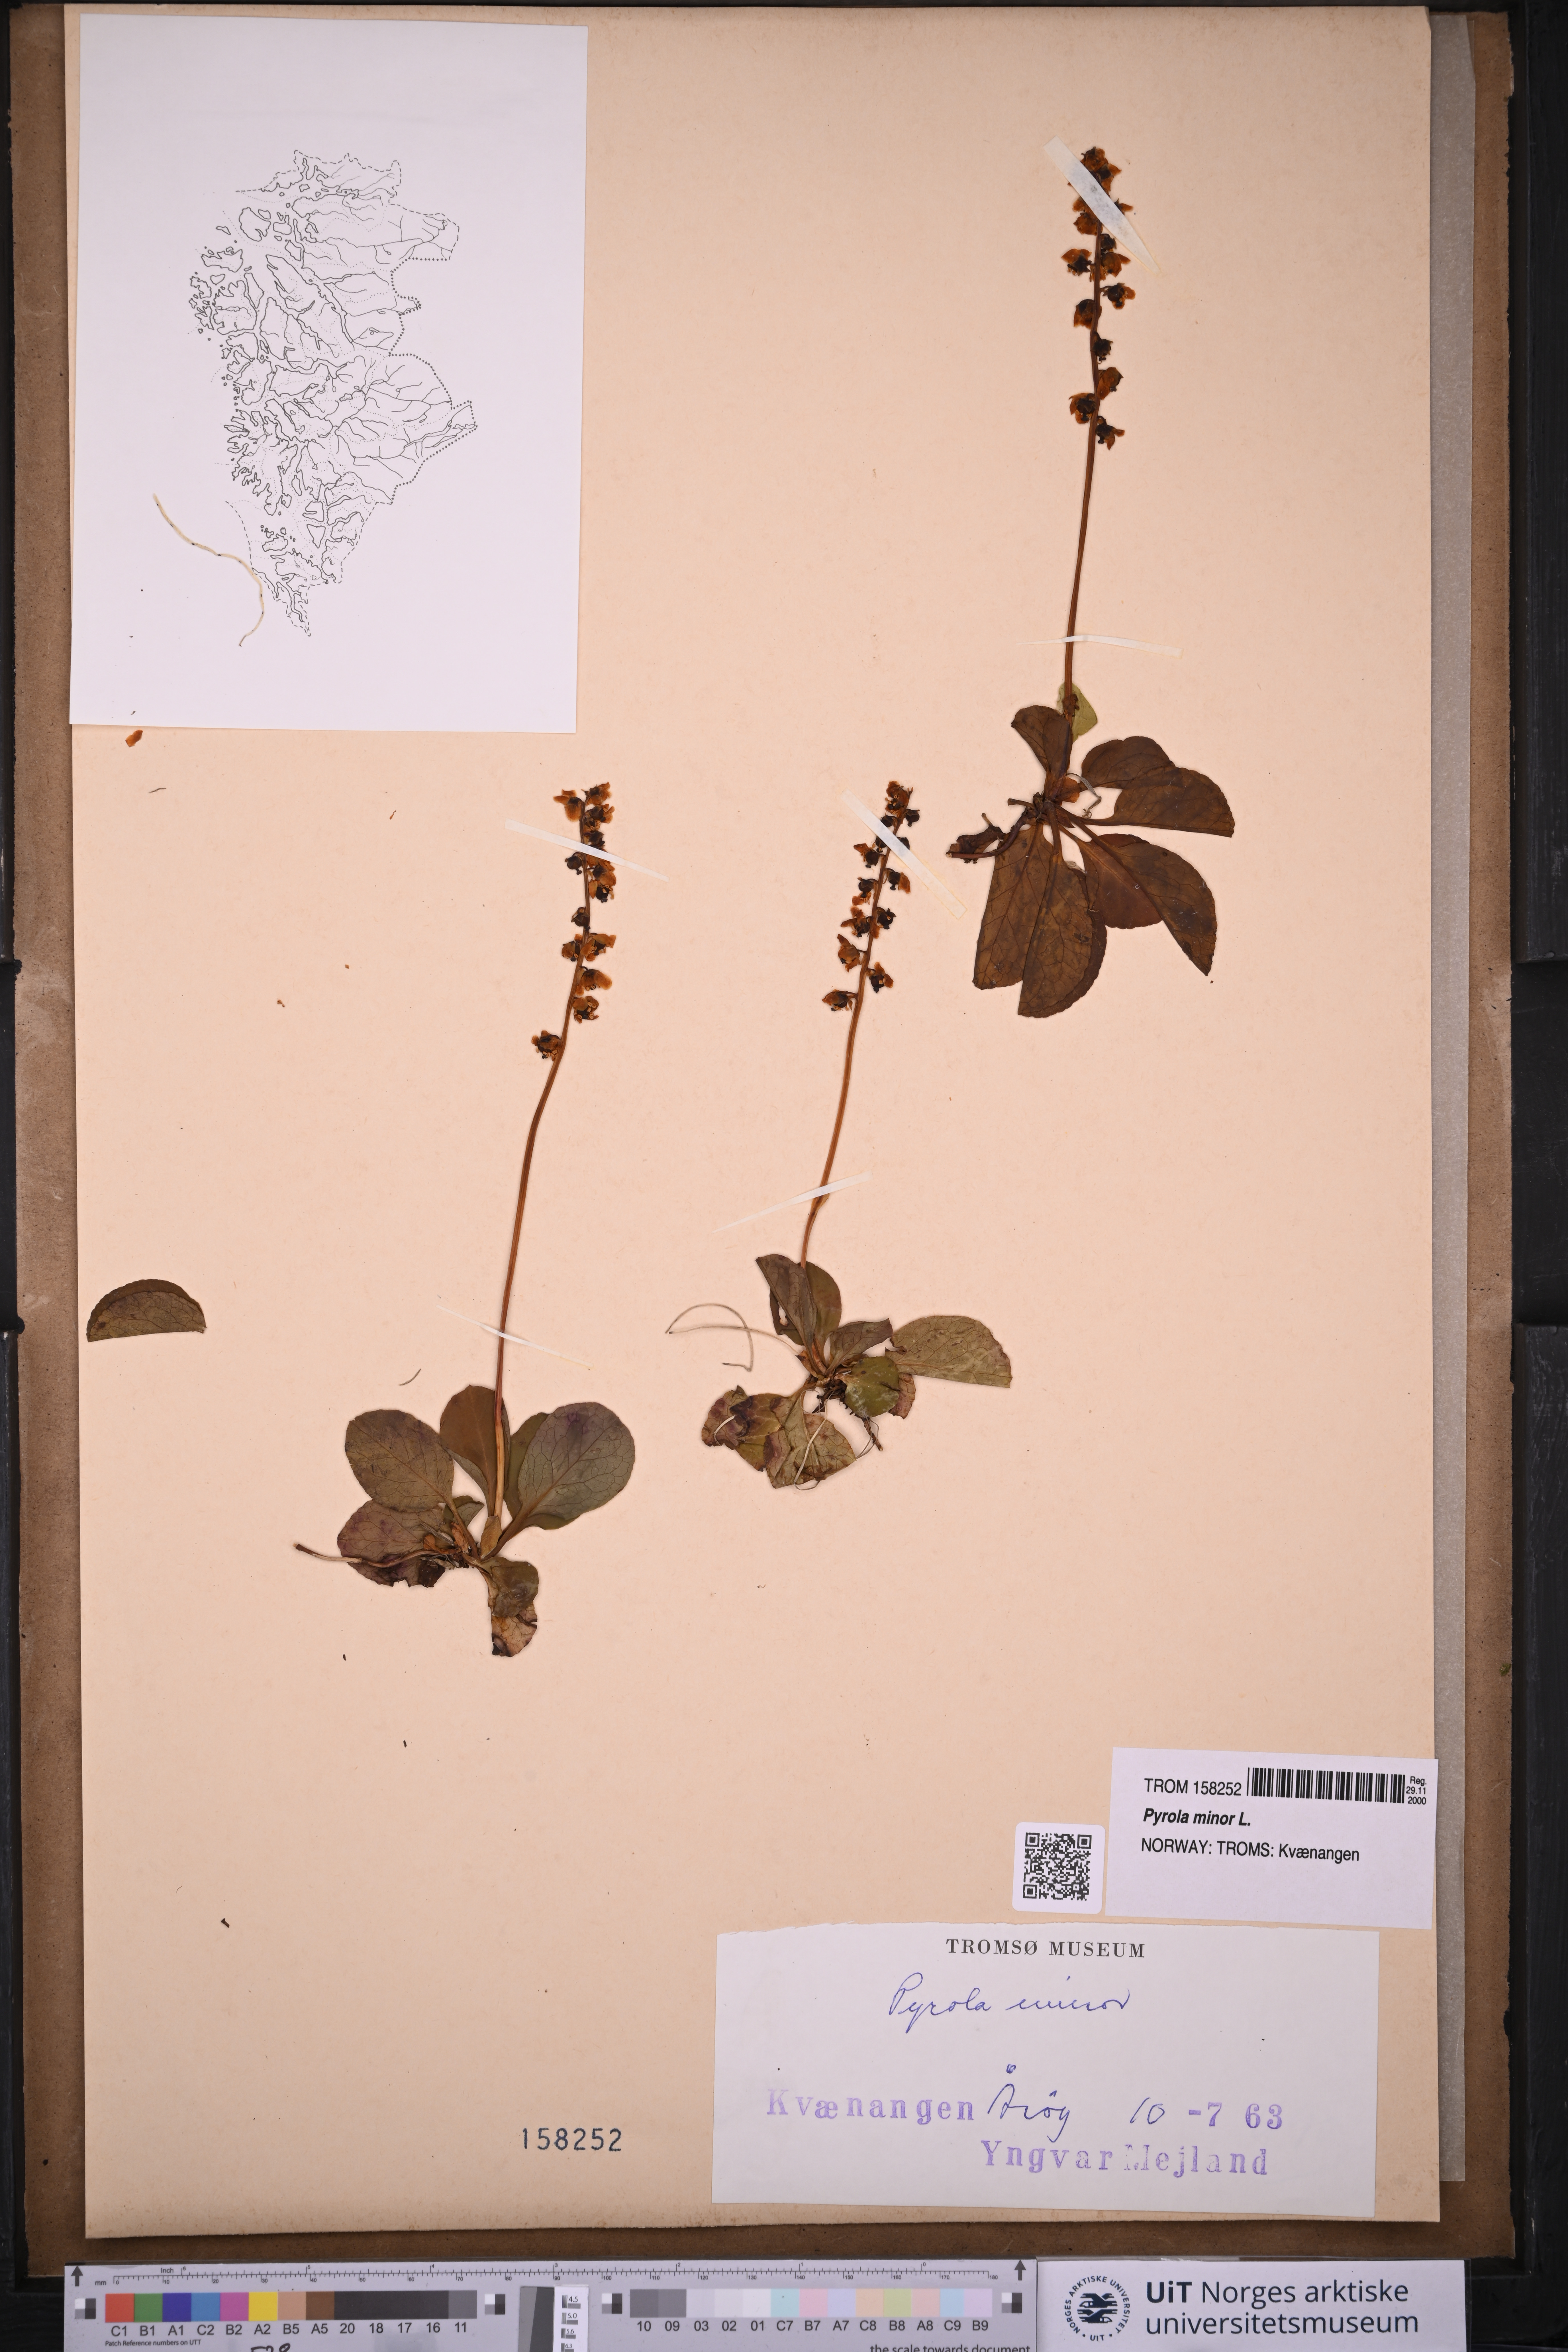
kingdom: Plantae
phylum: Tracheophyta
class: Magnoliopsida
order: Ericales
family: Ericaceae
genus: Pyrola
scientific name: Pyrola minor
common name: Common wintergreen
